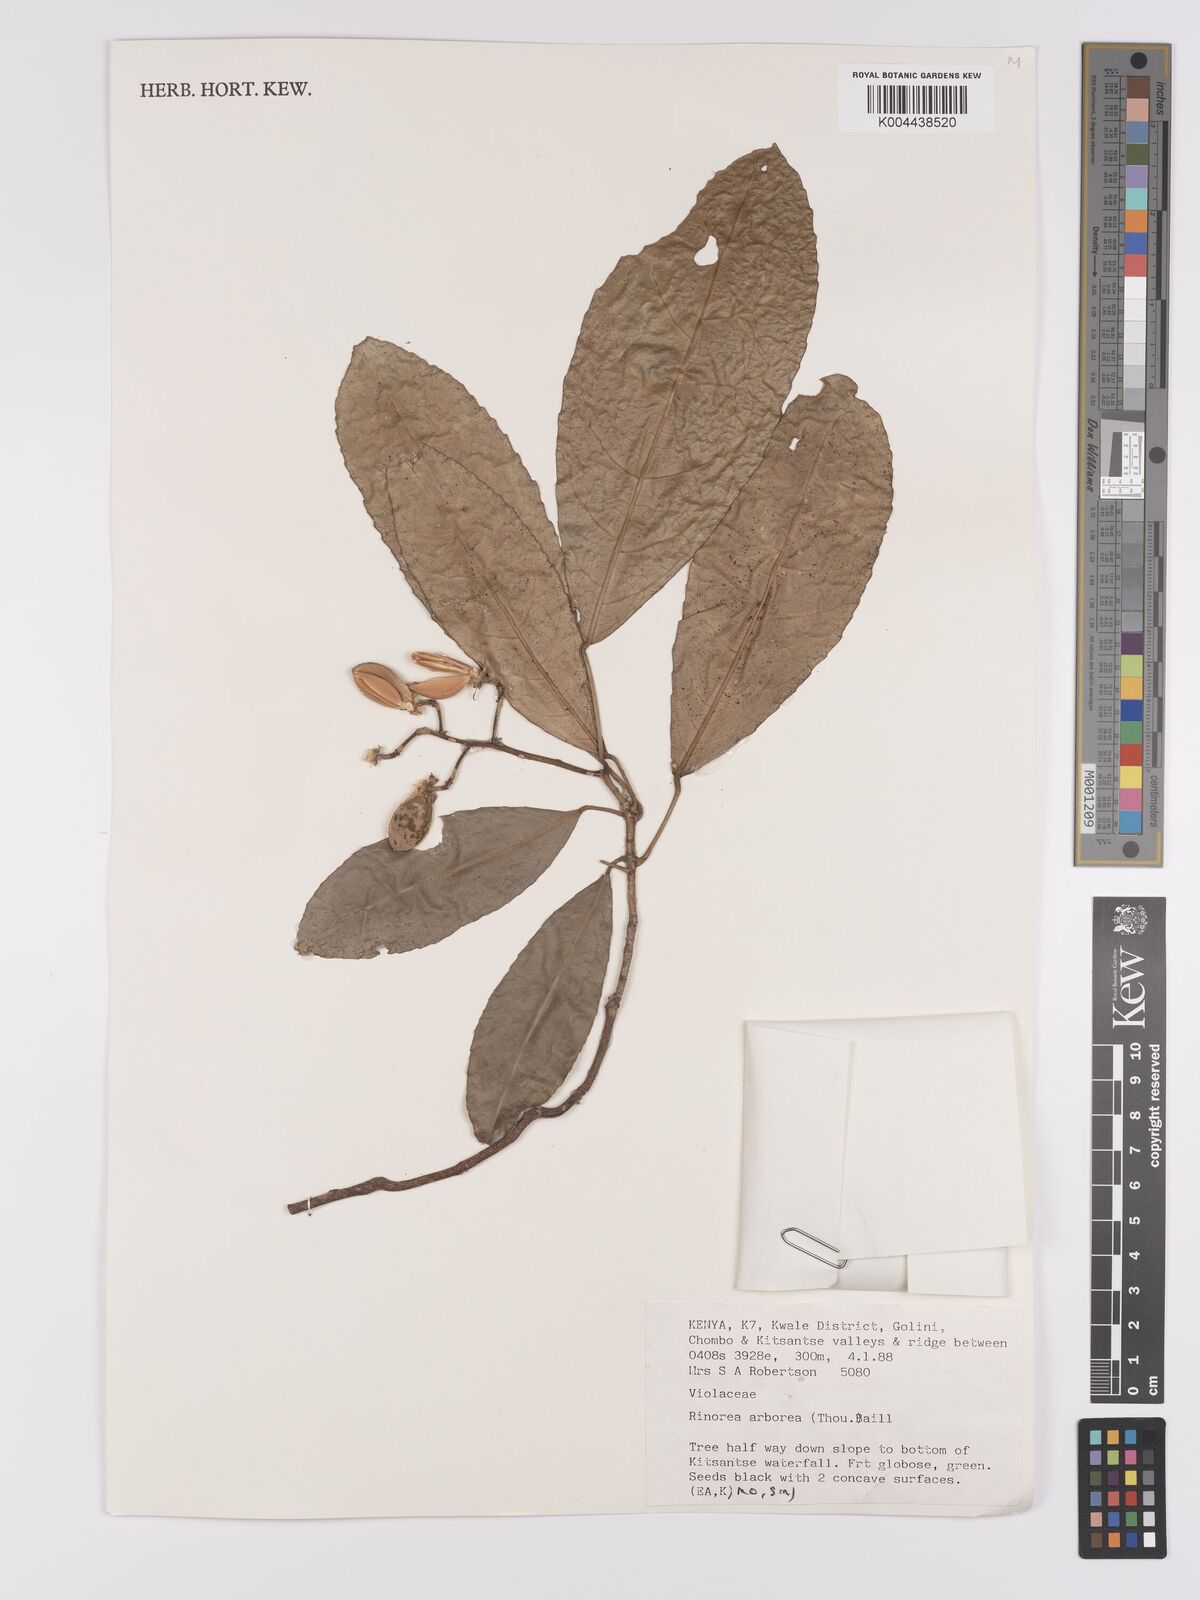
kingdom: Plantae
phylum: Tracheophyta
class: Magnoliopsida
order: Malpighiales
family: Violaceae
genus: Rinorea
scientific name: Rinorea arborea
